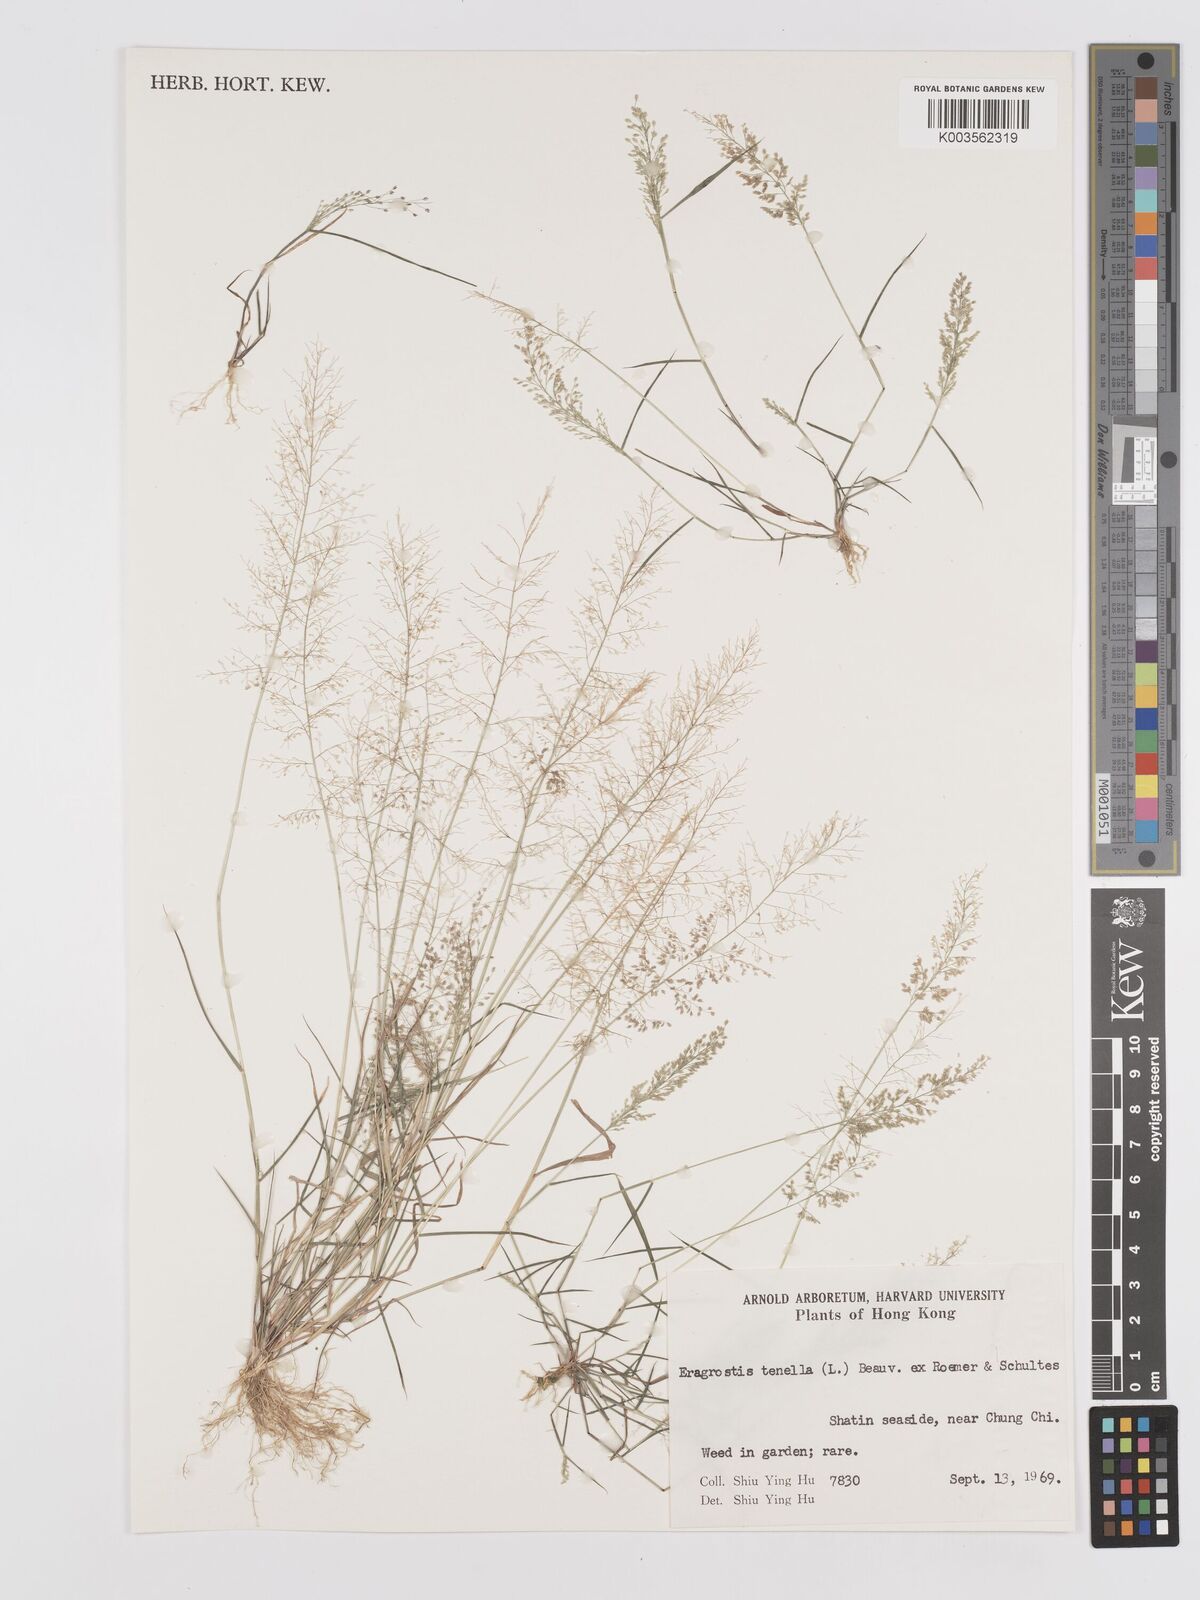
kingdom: Plantae
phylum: Tracheophyta
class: Liliopsida
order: Poales
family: Poaceae
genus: Eragrostis
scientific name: Eragrostis tenella
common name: Japanese lovegrass
